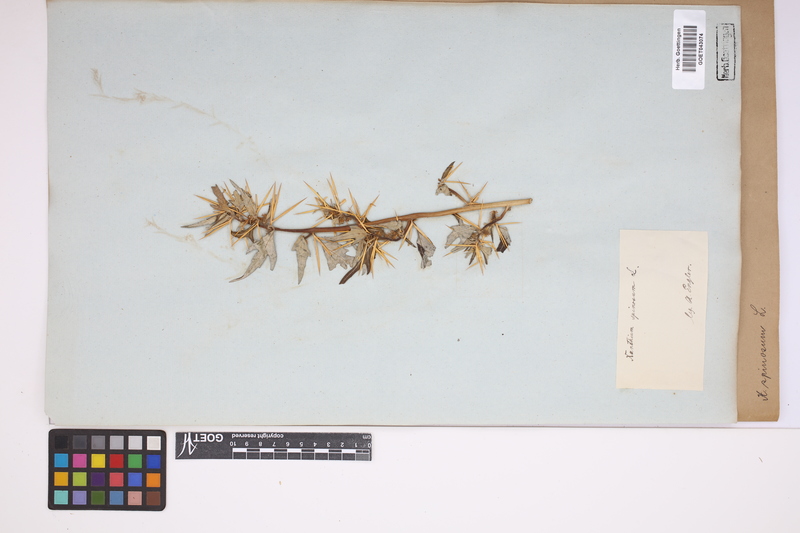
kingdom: Plantae
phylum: Tracheophyta
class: Magnoliopsida
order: Asterales
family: Asteraceae
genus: Xanthium
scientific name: Xanthium spinosum
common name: Spiny cocklebur
